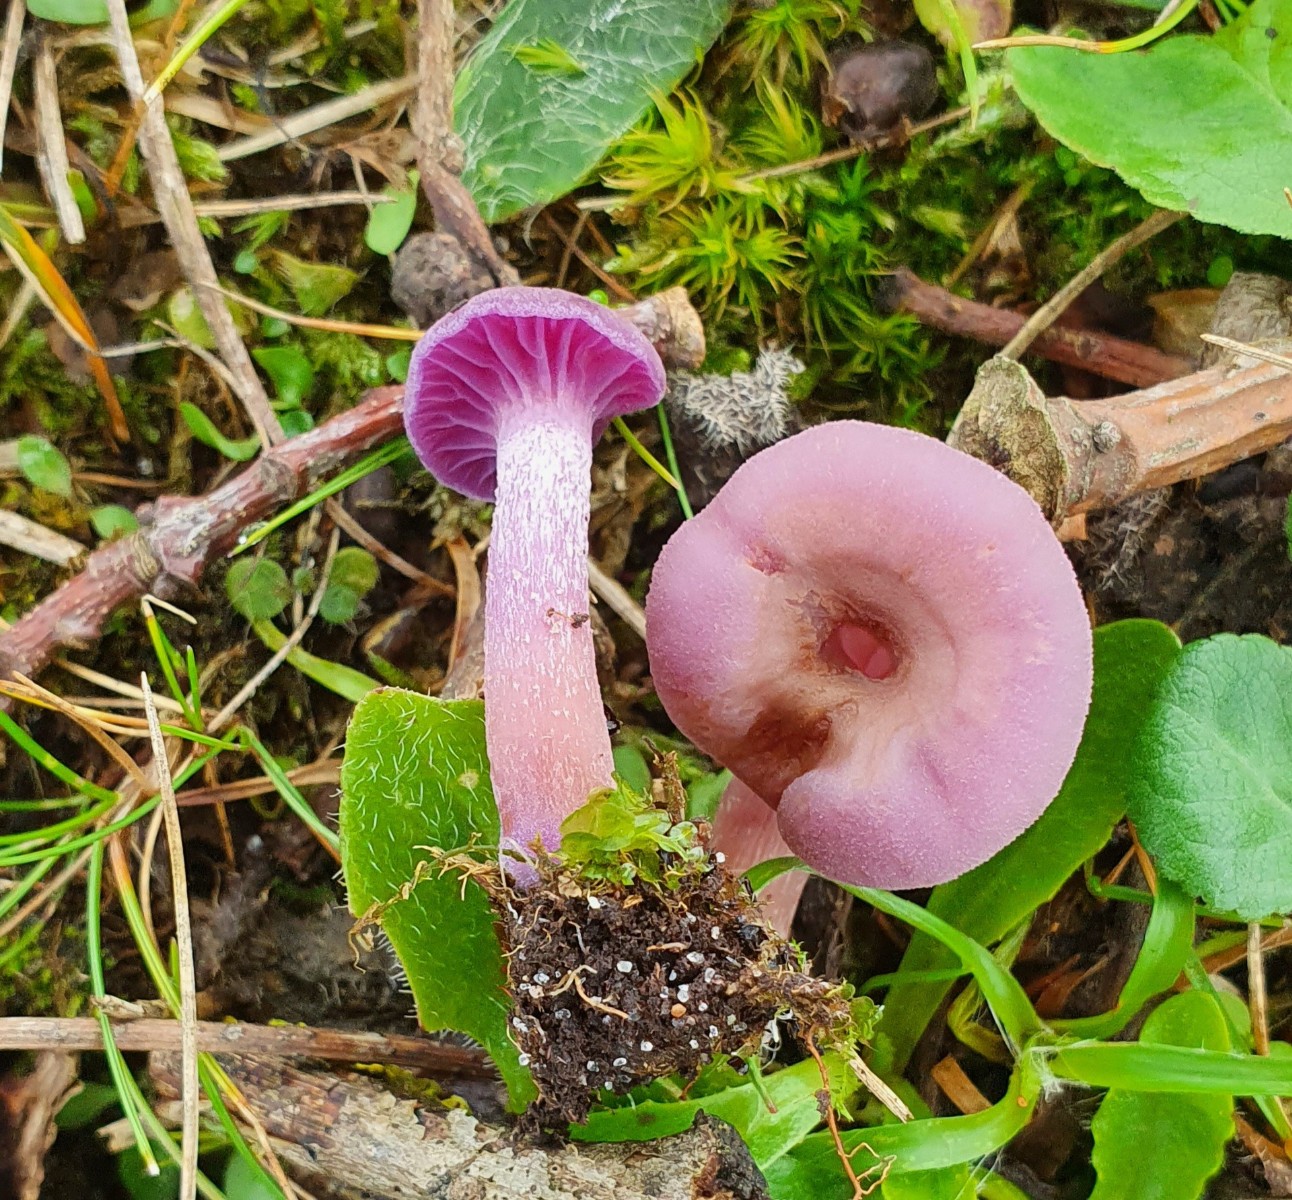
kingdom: Fungi
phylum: Basidiomycota
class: Agaricomycetes
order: Agaricales
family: Hydnangiaceae
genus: Laccaria
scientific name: Laccaria amethystina
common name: violet ametysthat
